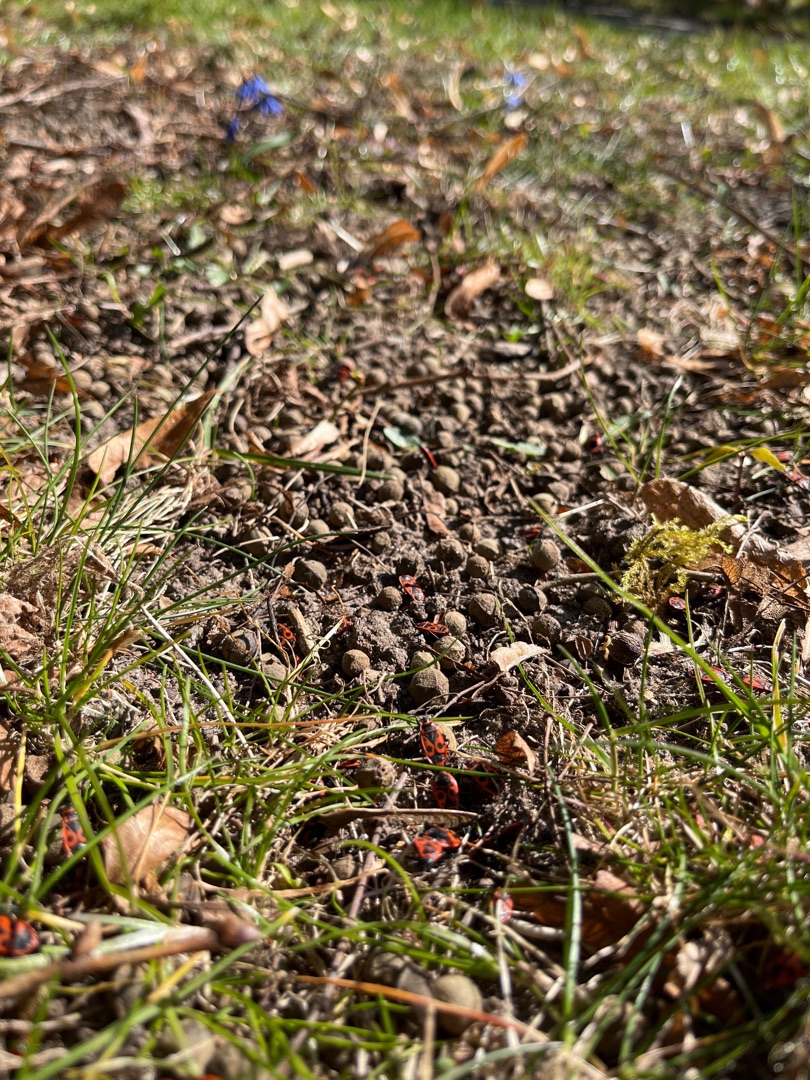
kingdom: Animalia
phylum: Arthropoda
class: Insecta
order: Hemiptera
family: Pyrrhocoridae
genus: Pyrrhocoris
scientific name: Pyrrhocoris apterus
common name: Ildtæge
